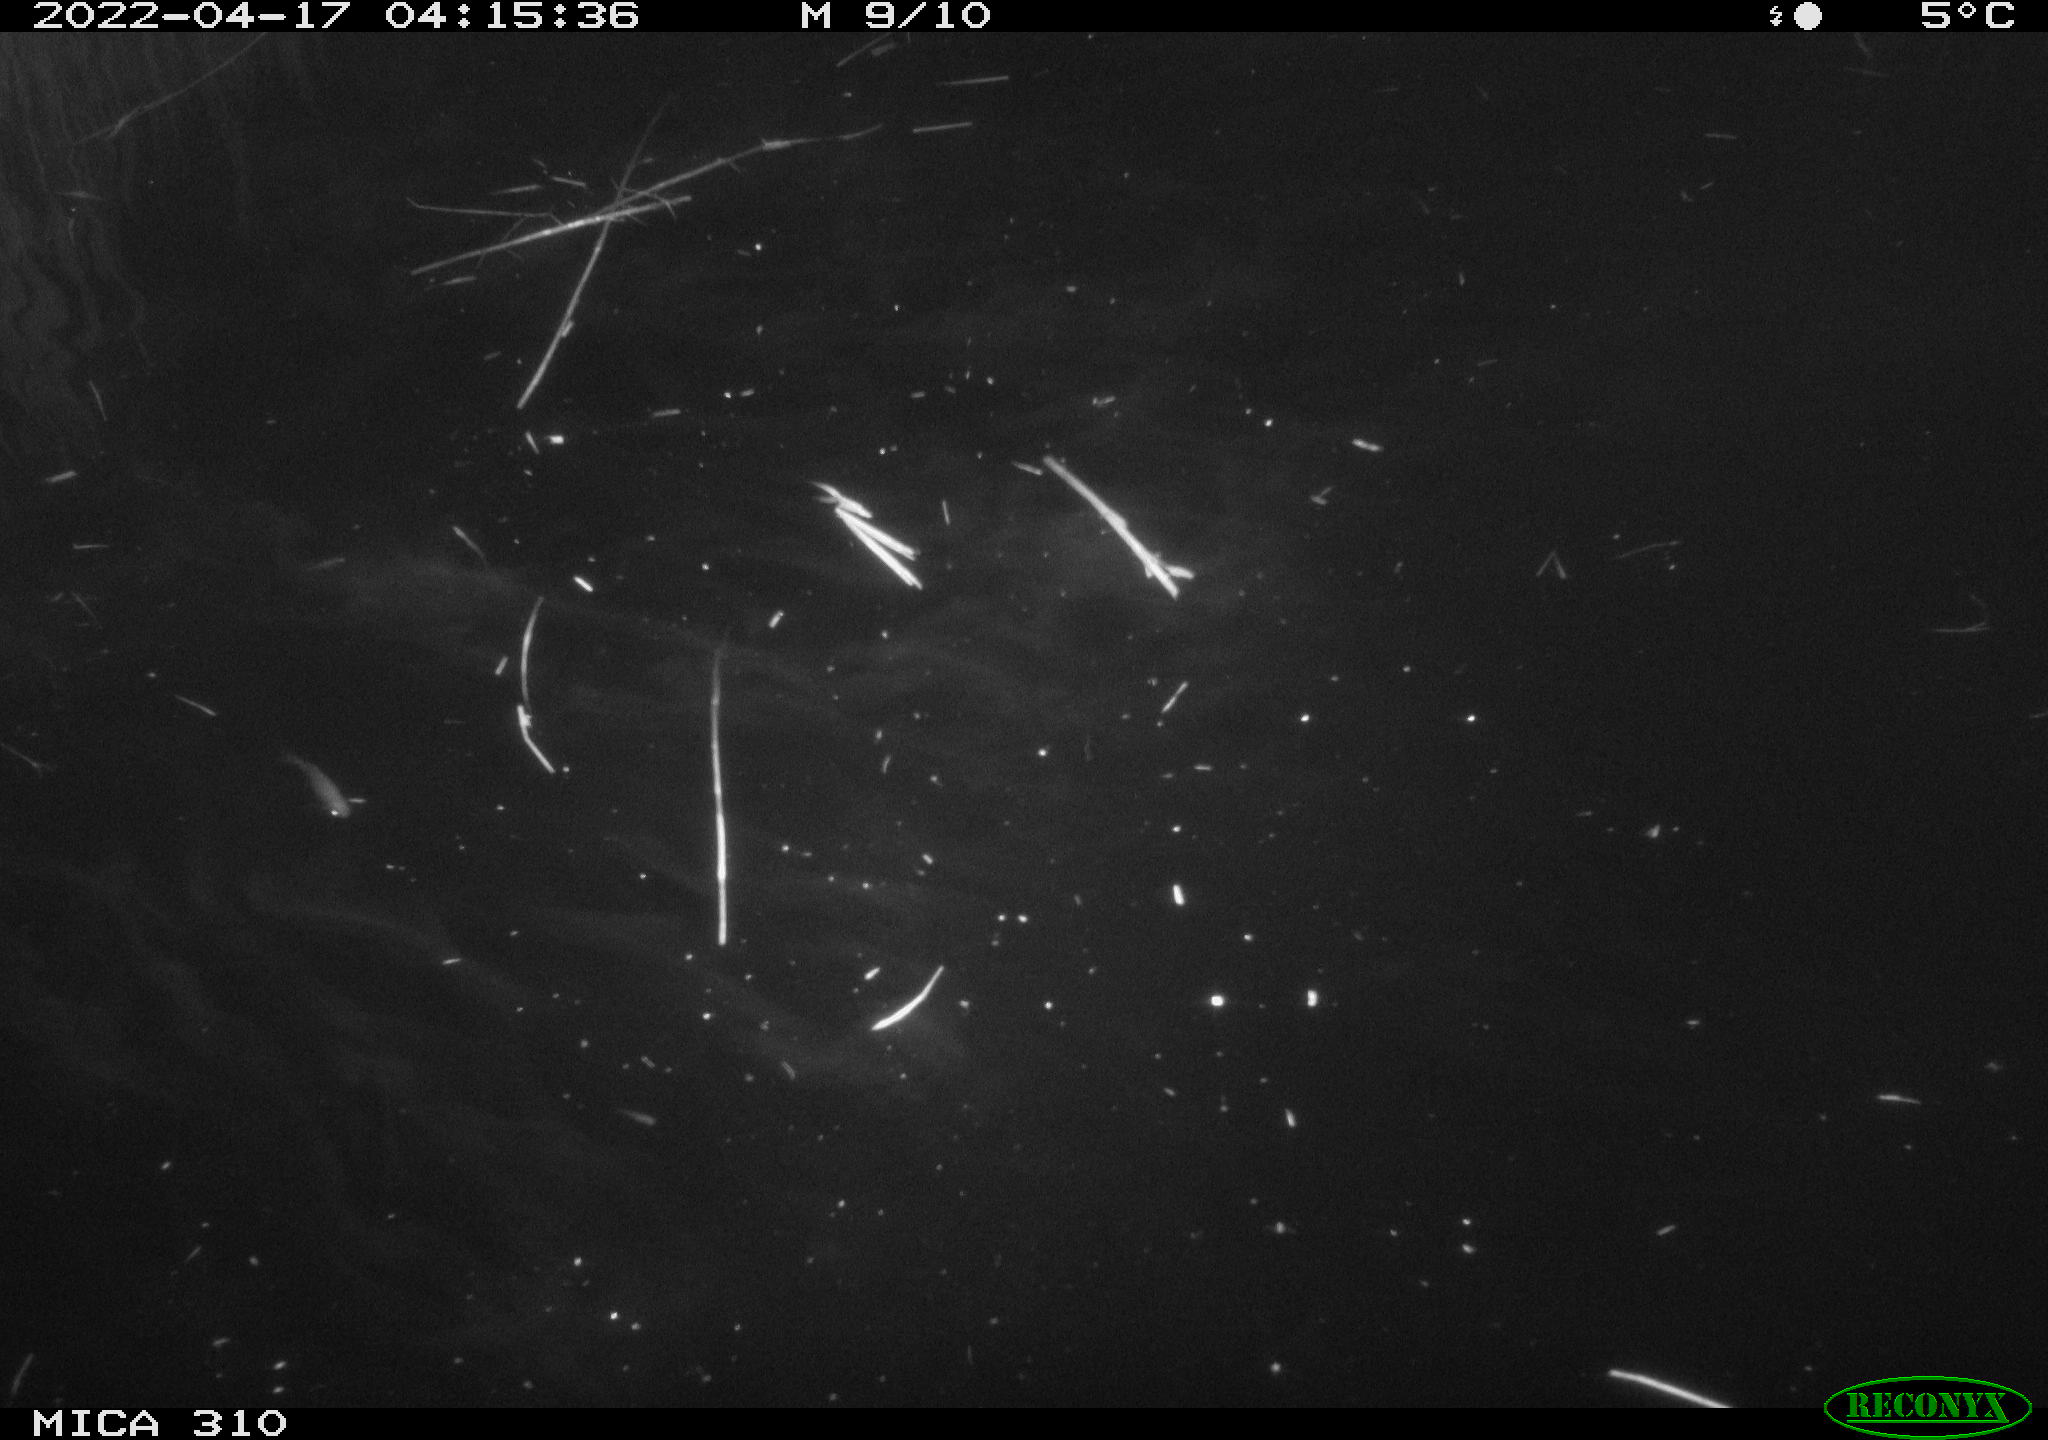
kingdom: Animalia
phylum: Chordata
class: Aves
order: Anseriformes
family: Anatidae
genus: Anas
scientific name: Anas platyrhynchos
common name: Mallard
